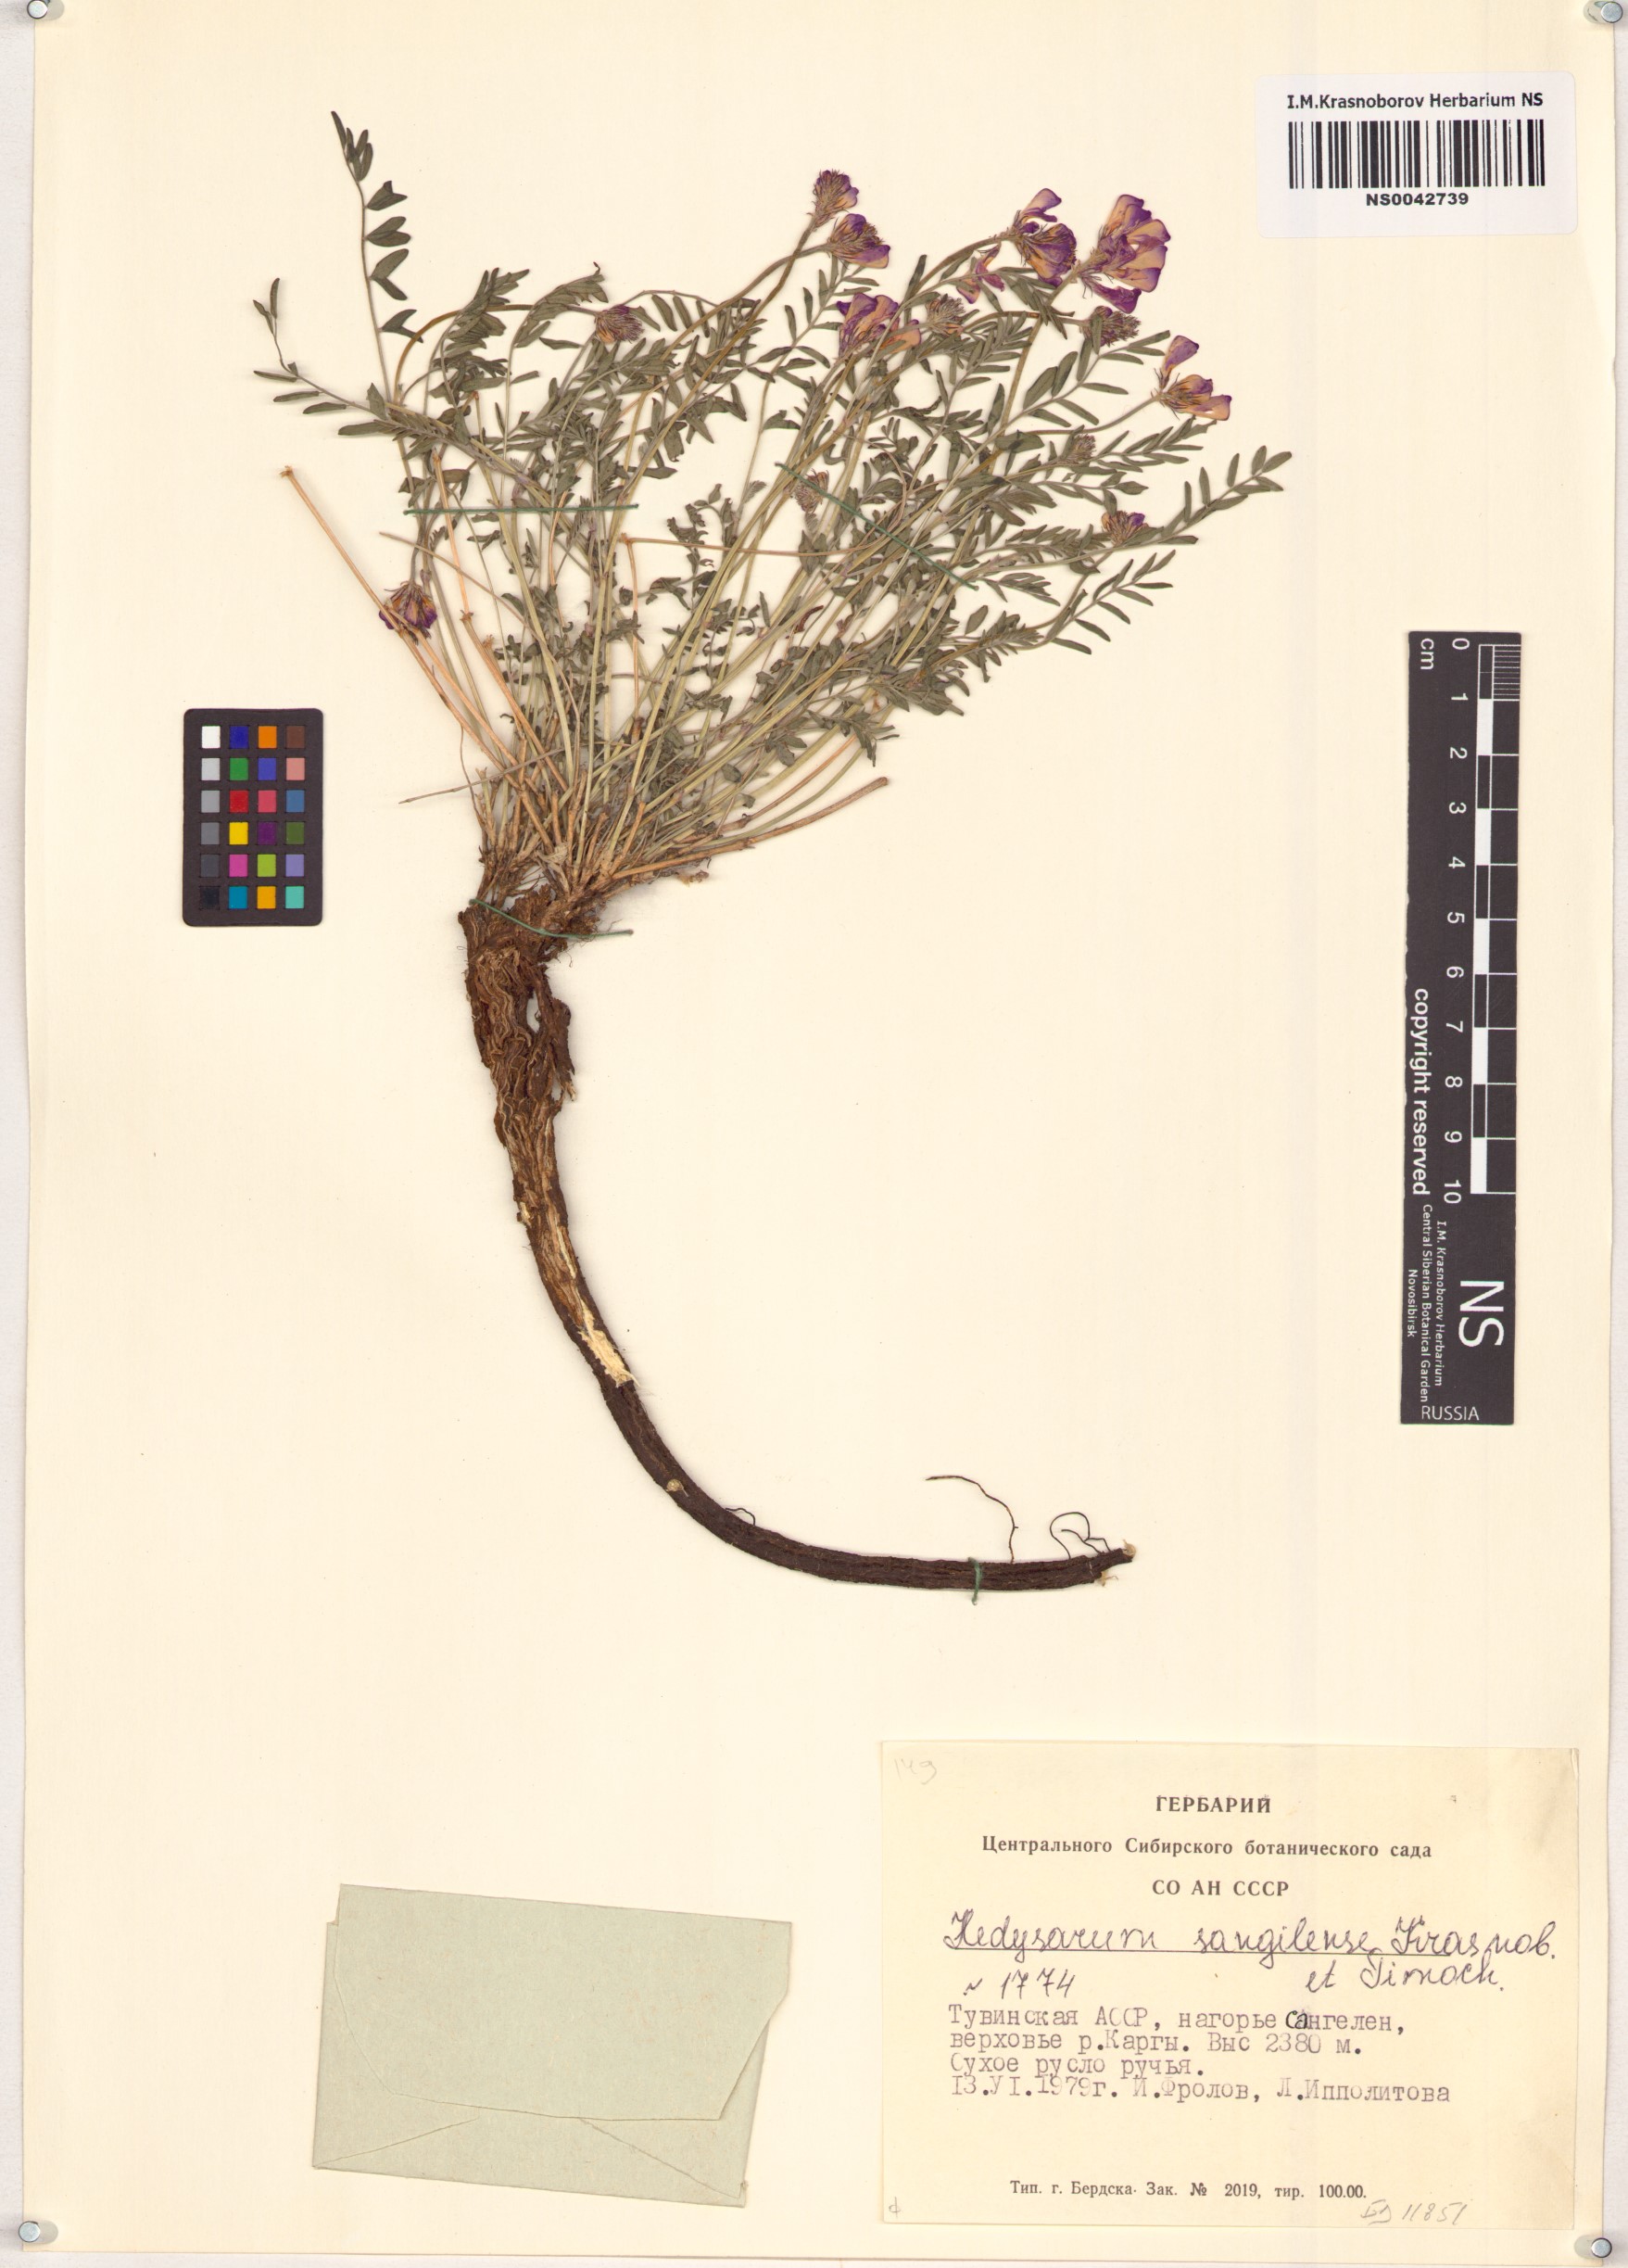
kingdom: Plantae
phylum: Tracheophyta
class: Magnoliopsida
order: Fabales
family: Fabaceae
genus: Hedysarum
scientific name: Hedysarum sangilense
